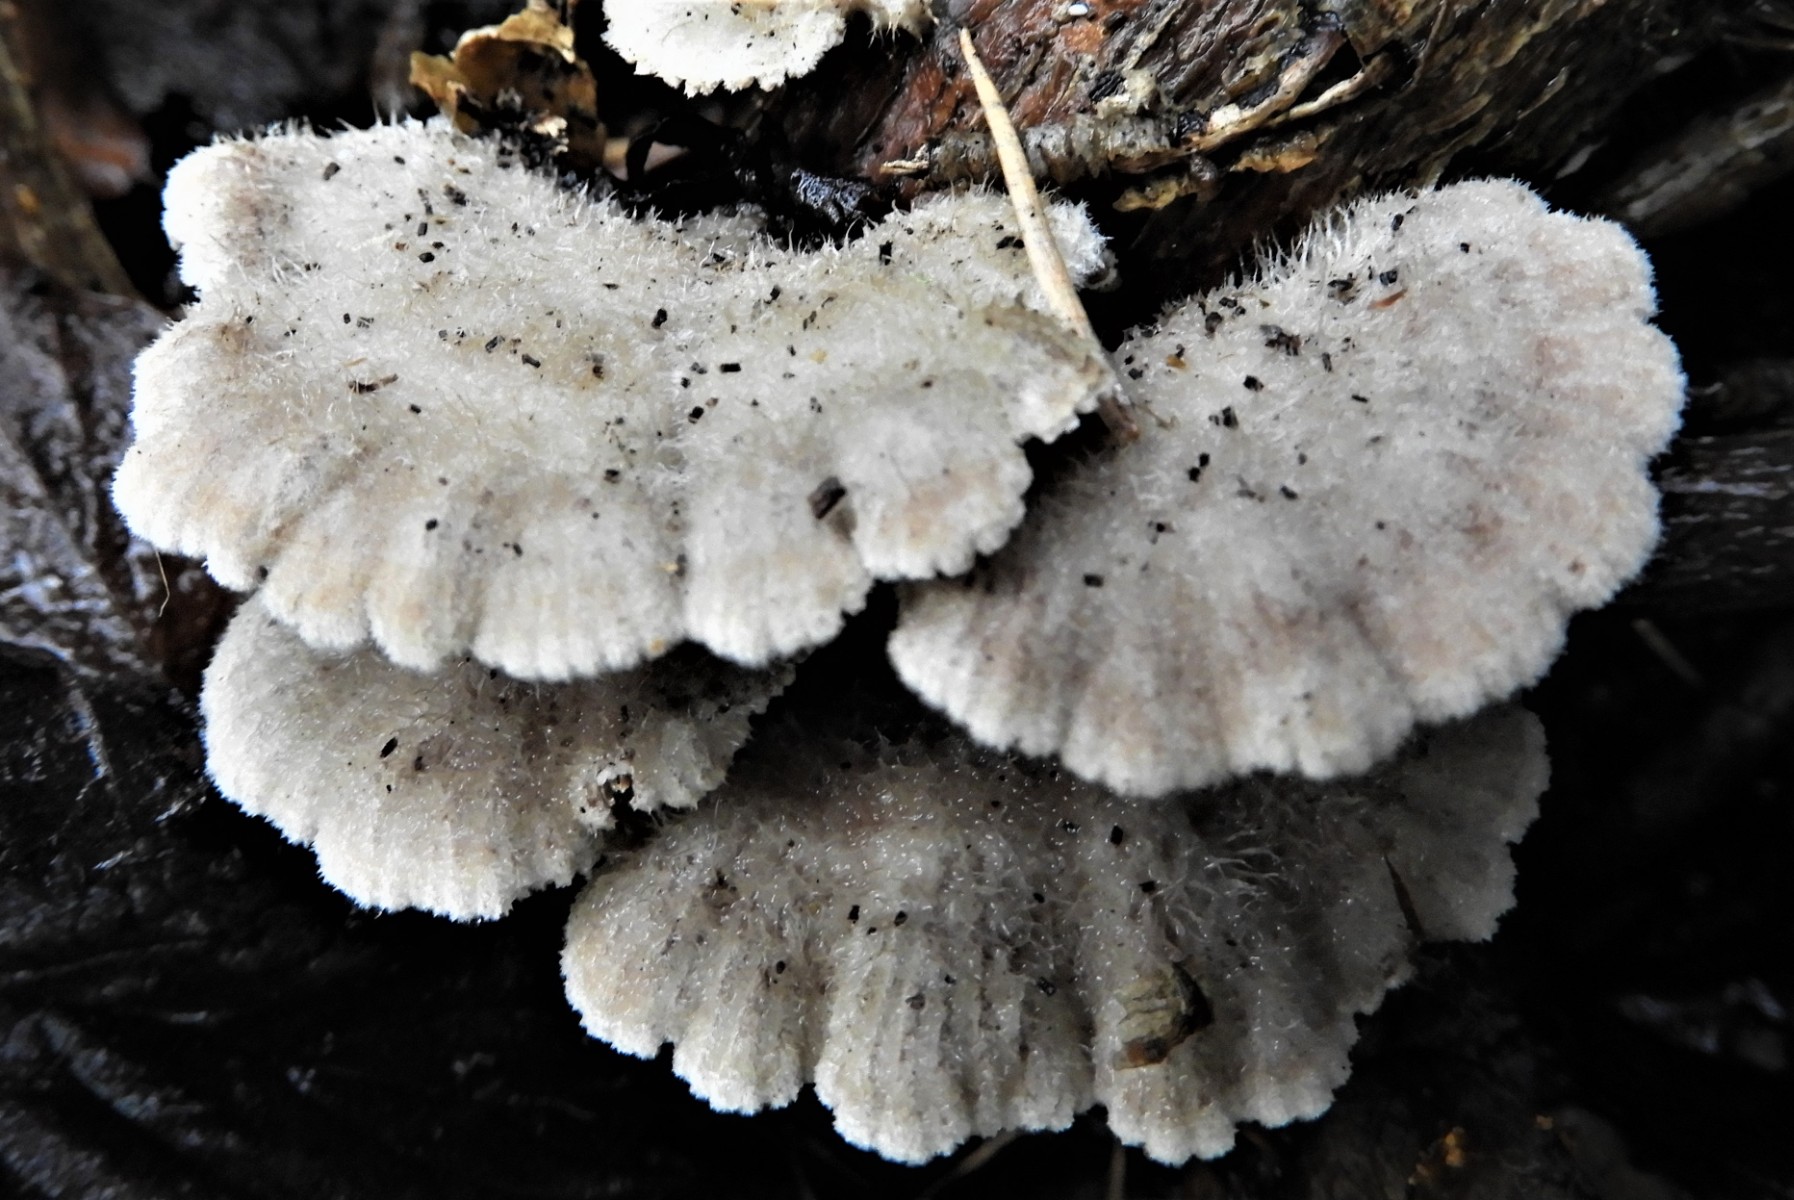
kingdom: Fungi
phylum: Basidiomycota
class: Agaricomycetes
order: Agaricales
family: Schizophyllaceae
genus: Schizophyllum
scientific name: Schizophyllum commune
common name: kløvblad
